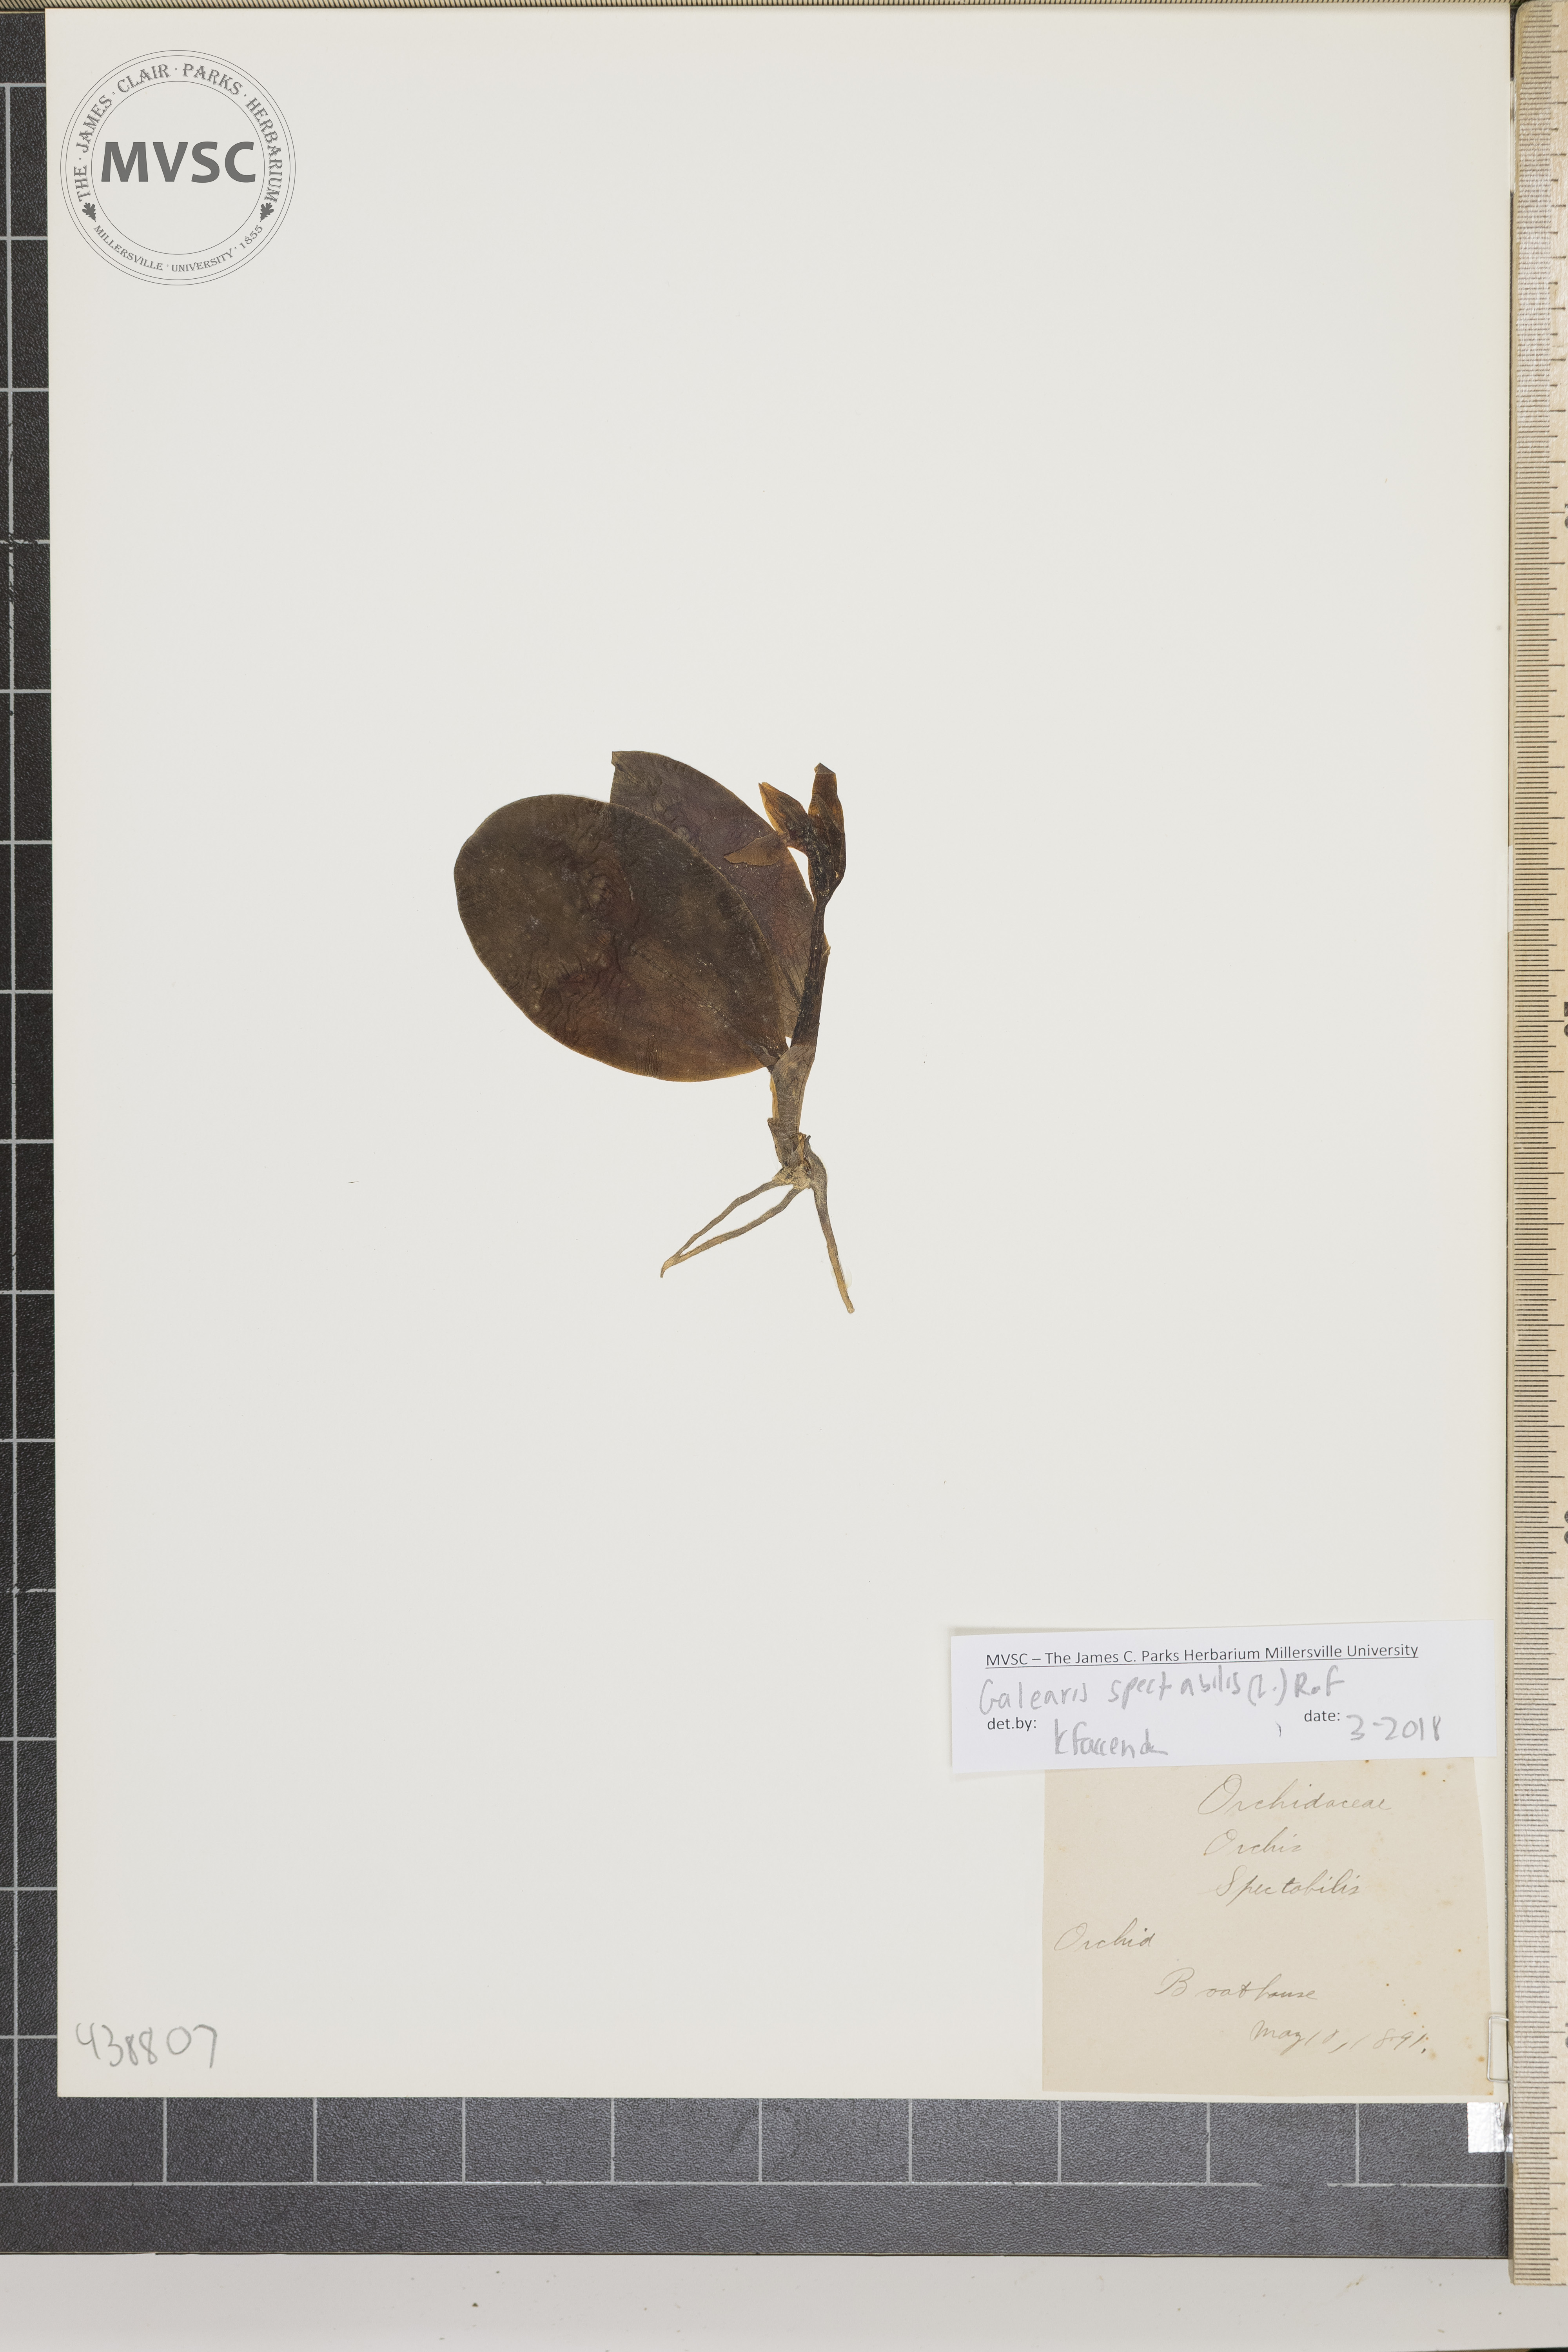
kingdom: Plantae
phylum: Tracheophyta
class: Liliopsida
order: Asparagales
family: Orchidaceae
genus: Galearis
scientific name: Galearis spectabilis
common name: Orchid
